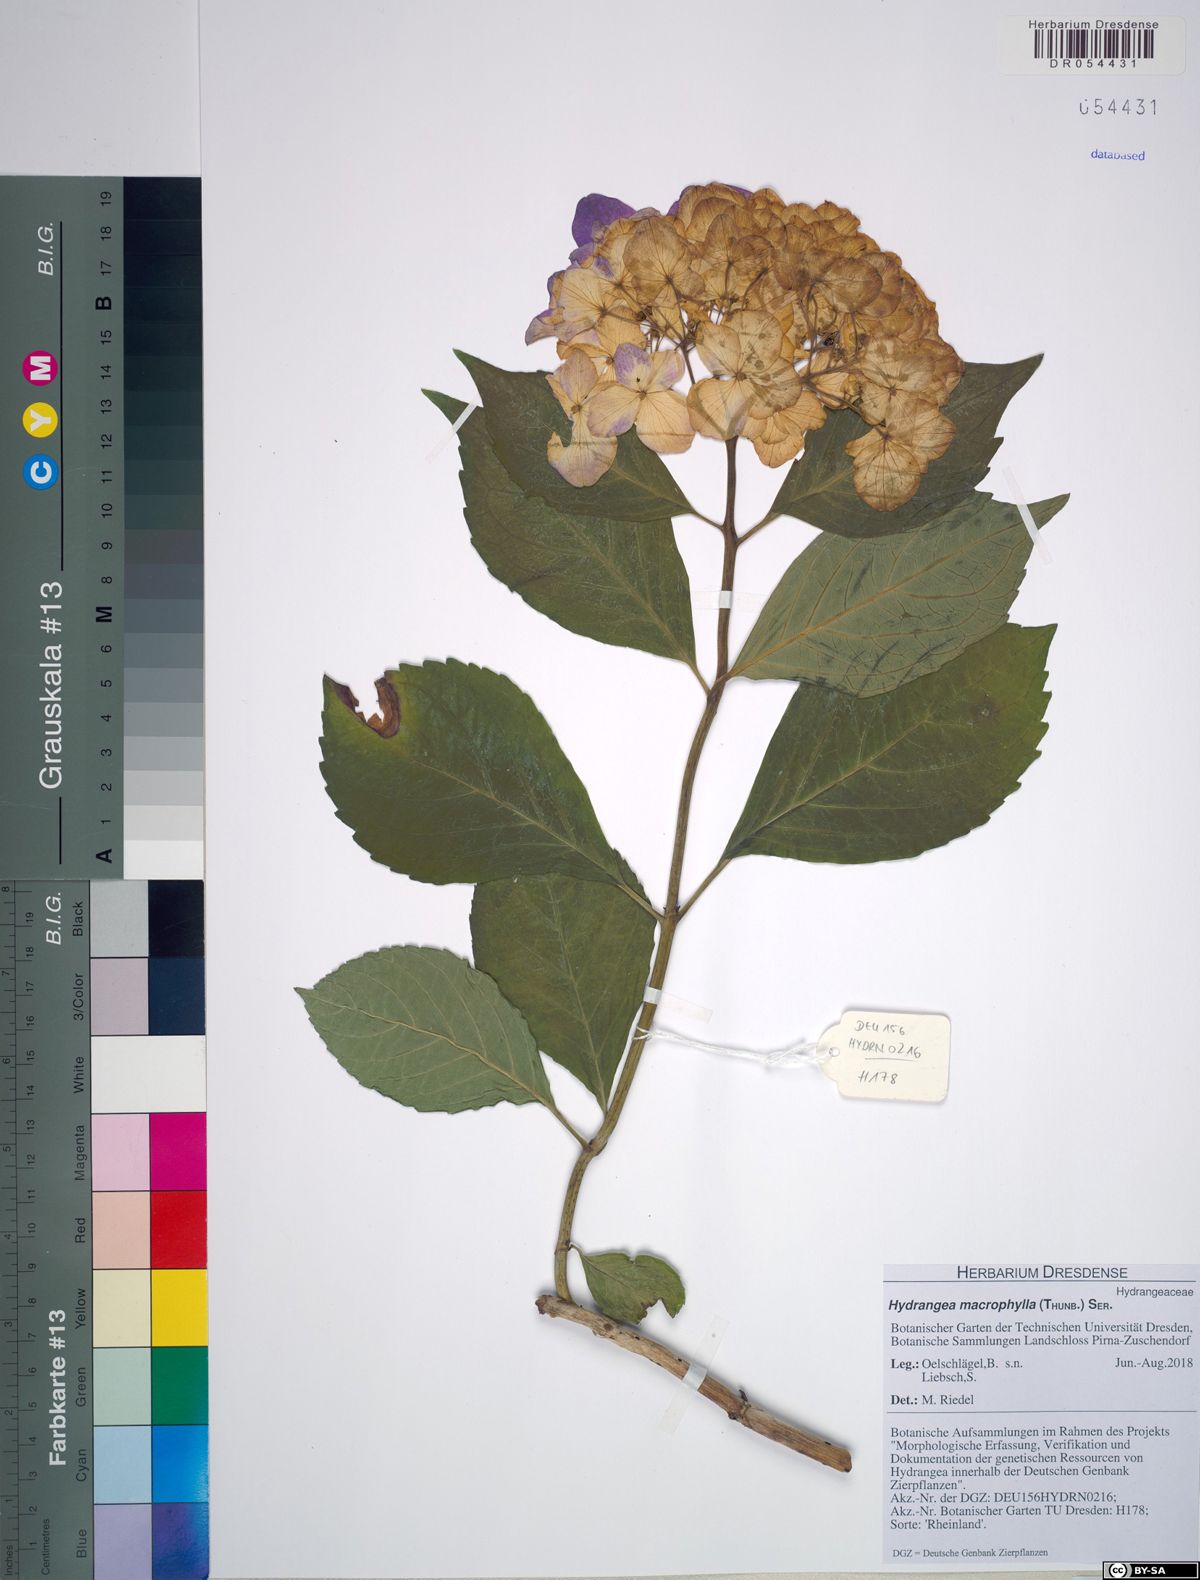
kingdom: Plantae
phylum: Tracheophyta
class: Magnoliopsida
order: Cornales
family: Hydrangeaceae
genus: Hydrangea
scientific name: Hydrangea macrophylla
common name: Hydrangea
